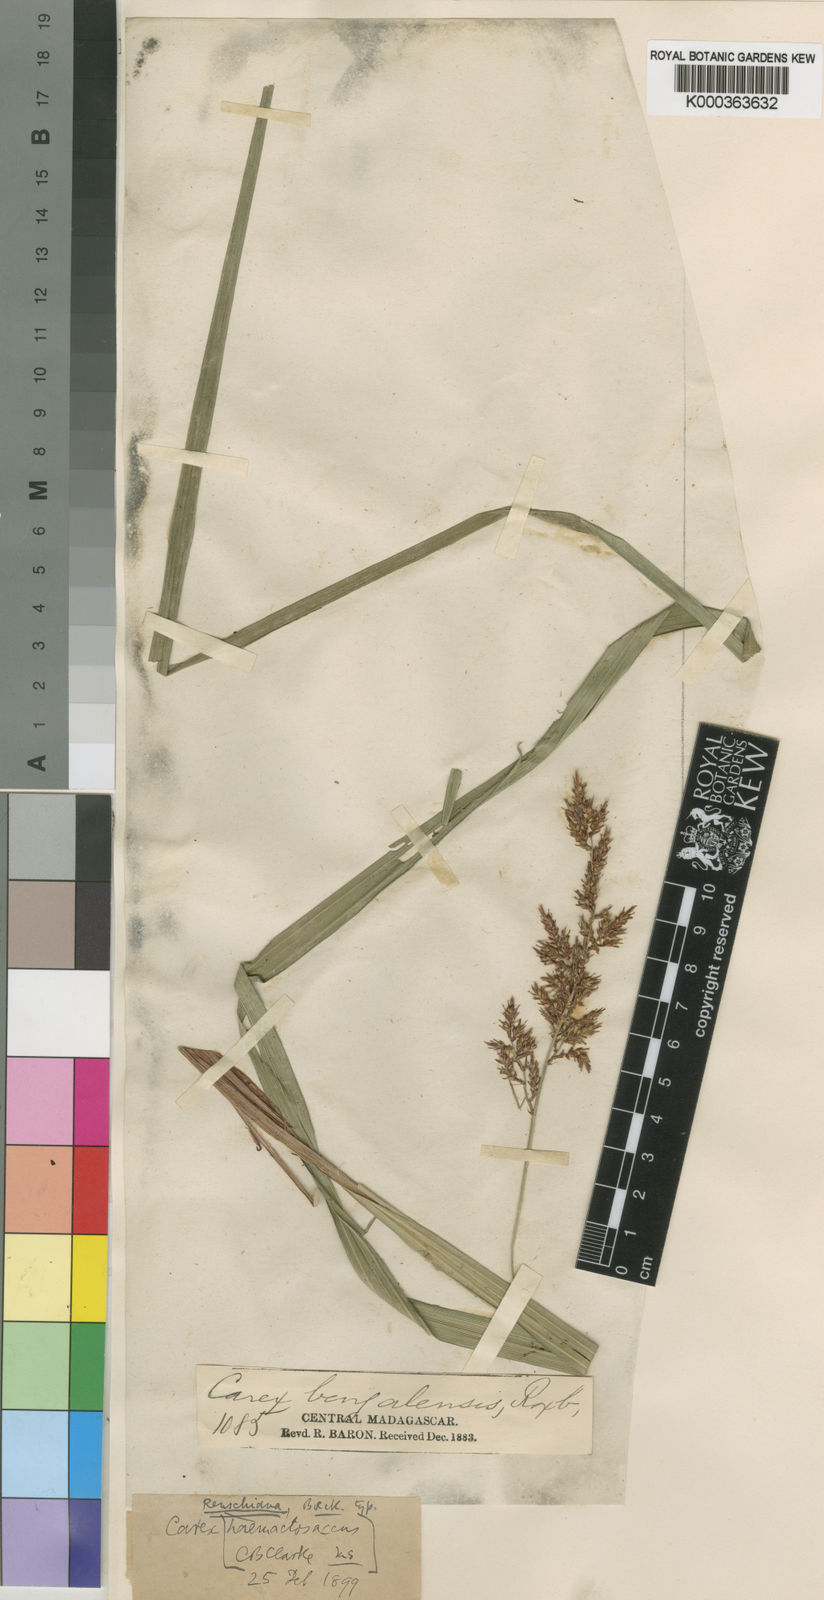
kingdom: Plantae
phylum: Tracheophyta
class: Liliopsida
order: Poales
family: Cyperaceae
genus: Carex
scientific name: Carex renschiana
